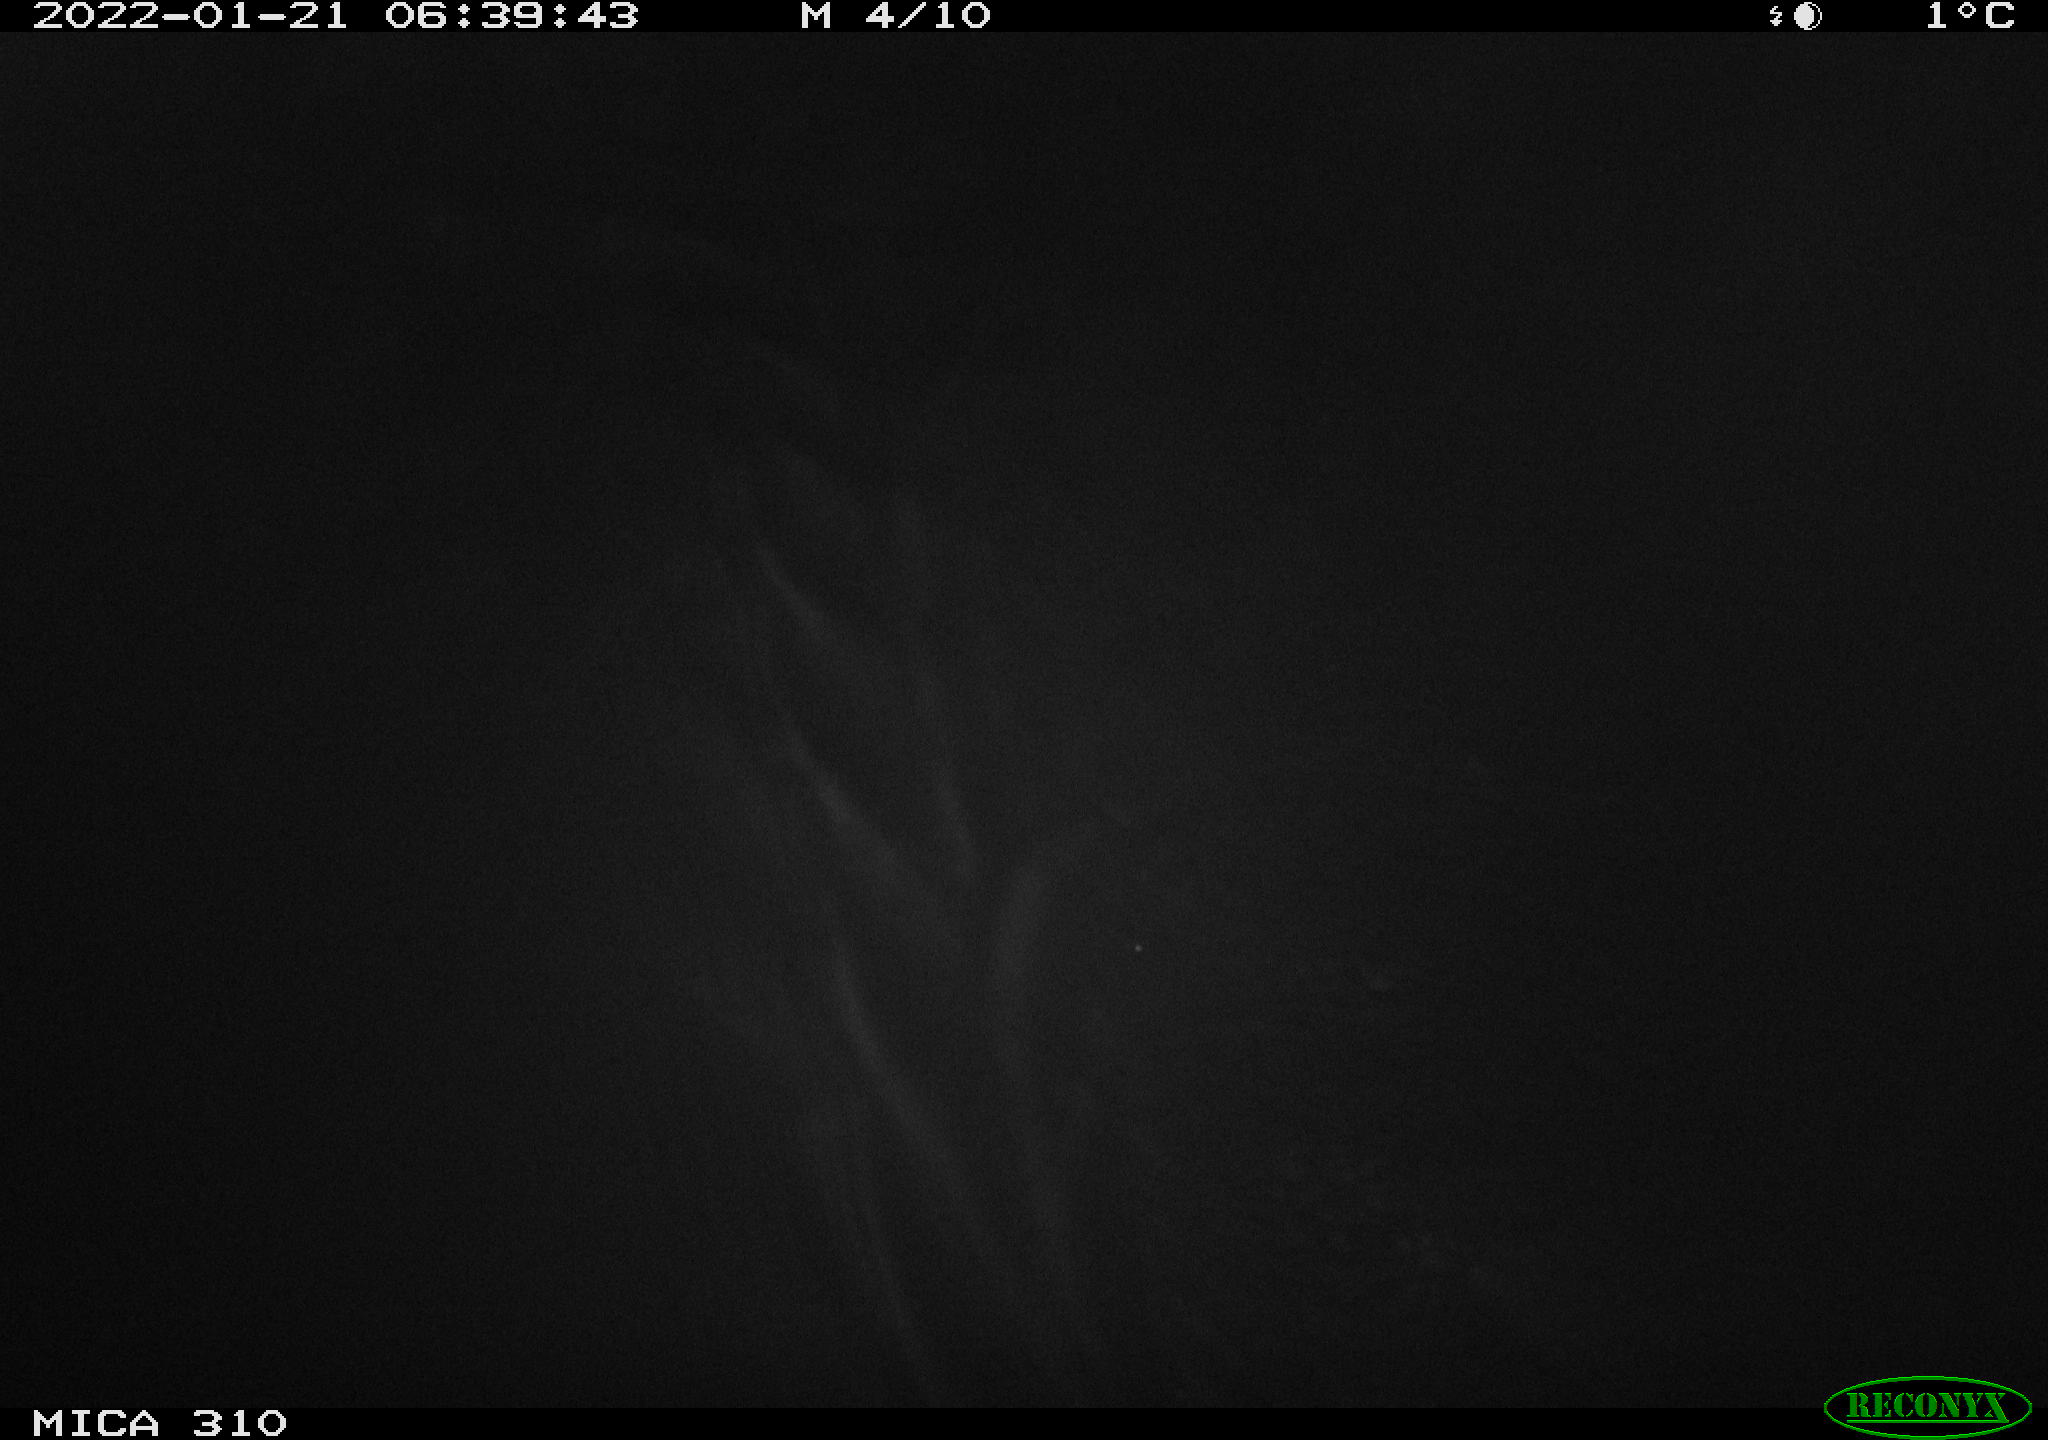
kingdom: Animalia
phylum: Chordata
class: Mammalia
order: Rodentia
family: Cricetidae
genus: Ondatra
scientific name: Ondatra zibethicus
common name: Muskrat
